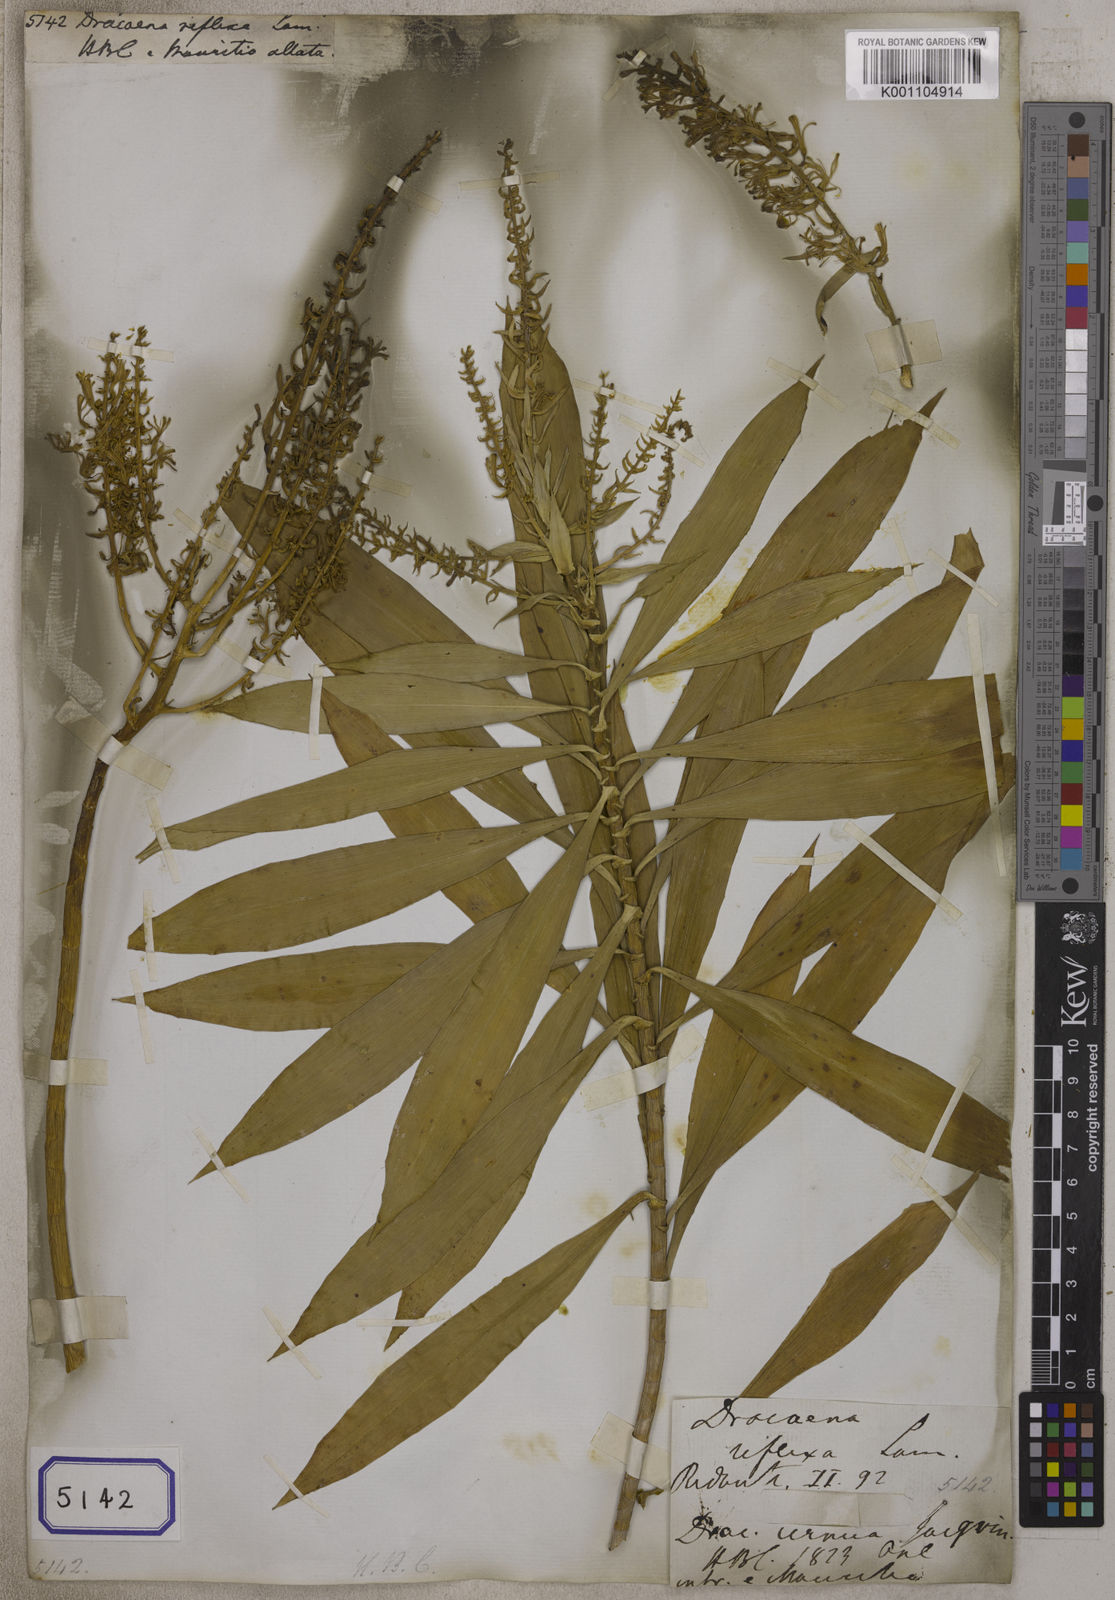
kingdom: Plantae
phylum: Tracheophyta
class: Liliopsida
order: Asparagales
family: Asparagaceae
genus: Dracaena
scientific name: Dracaena reflexa
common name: Song-of-india
